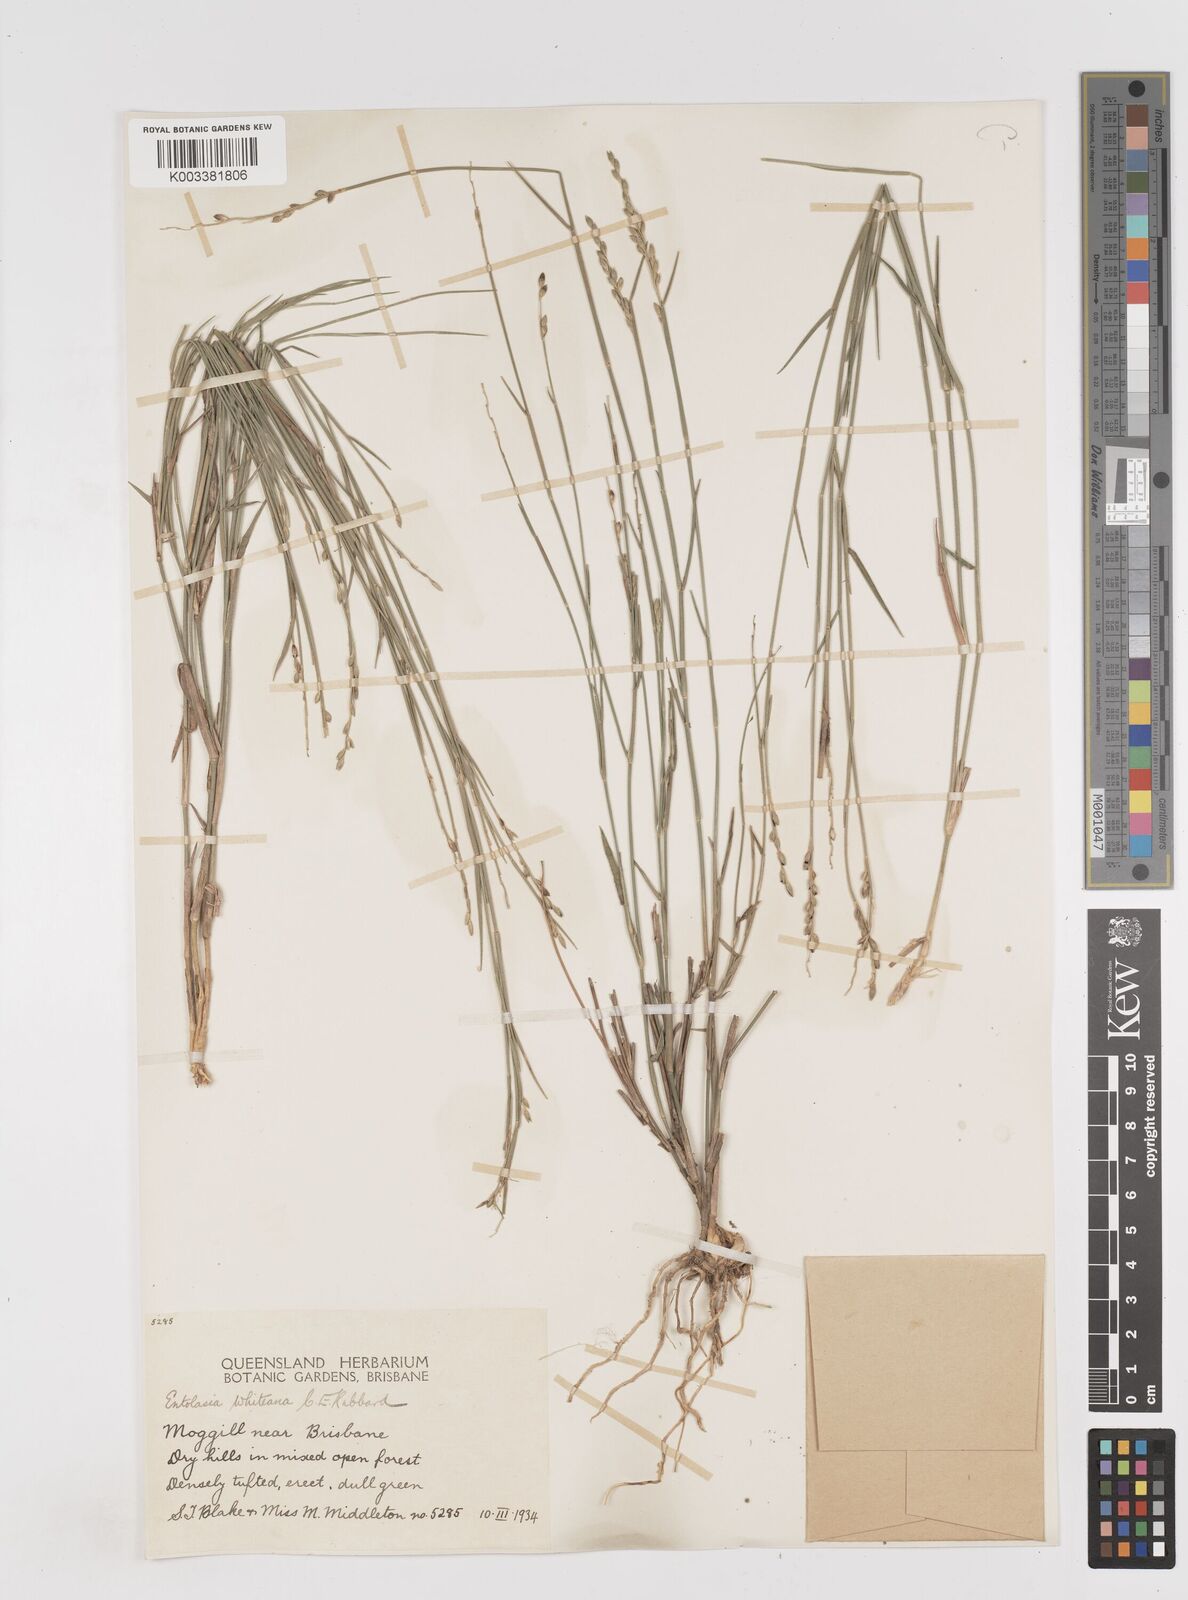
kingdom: Plantae
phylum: Tracheophyta
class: Liliopsida
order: Poales
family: Poaceae
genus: Entolasia
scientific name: Entolasia whiteana
